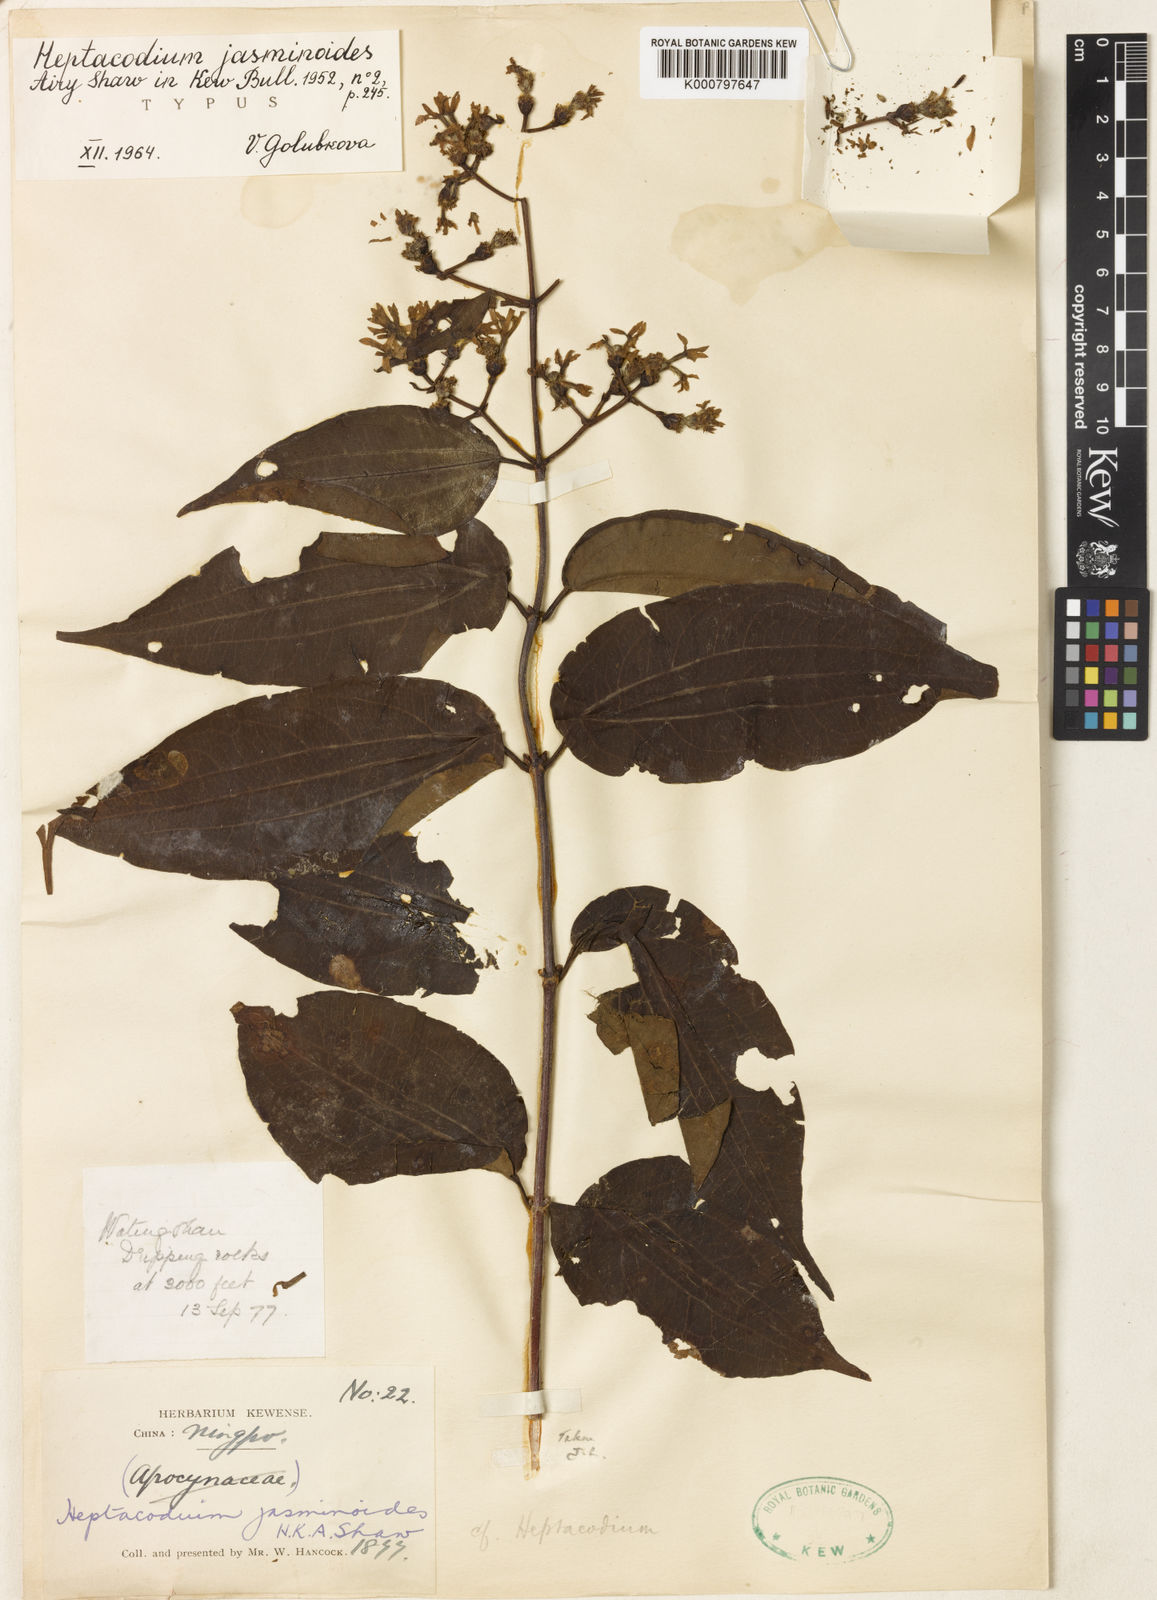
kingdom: Plantae
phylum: Tracheophyta
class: Magnoliopsida
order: Dipsacales
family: Caprifoliaceae
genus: Heptacodium
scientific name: Heptacodium miconioides
